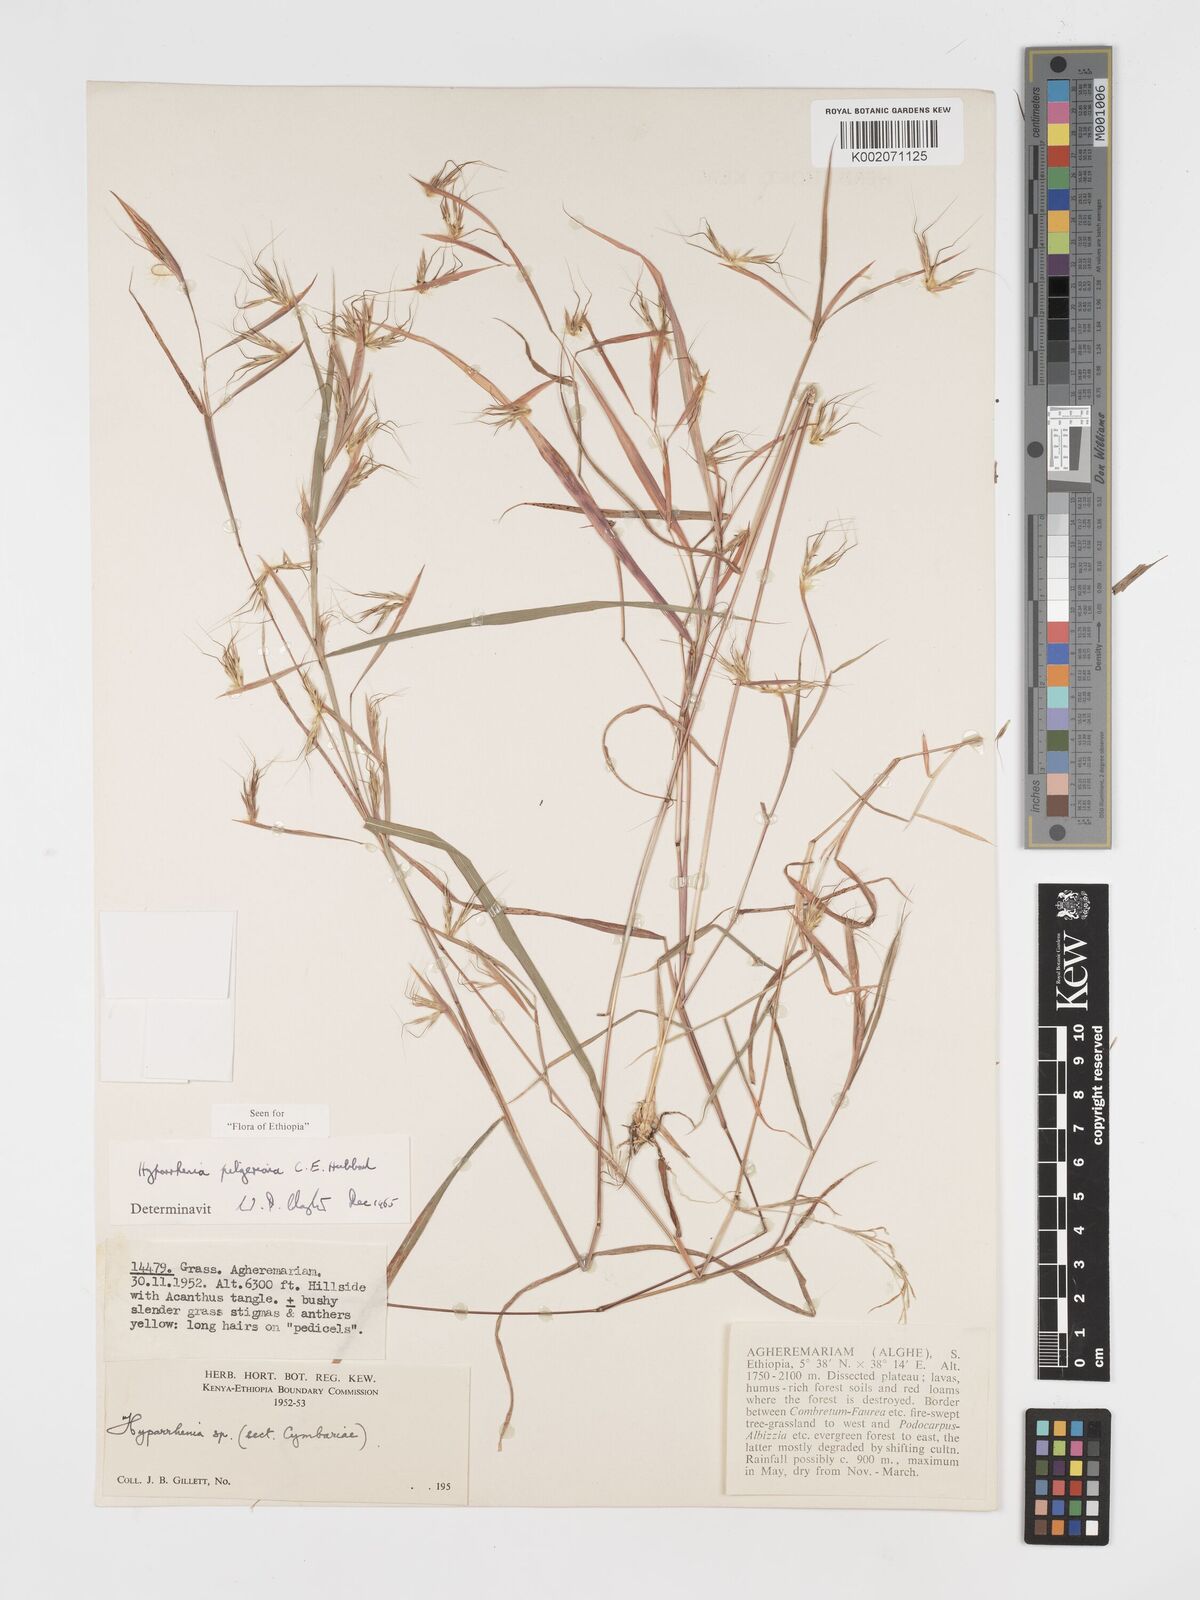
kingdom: Plantae
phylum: Tracheophyta
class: Liliopsida
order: Poales
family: Poaceae
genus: Hyparrhenia
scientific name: Hyparrhenia pilgeriana
